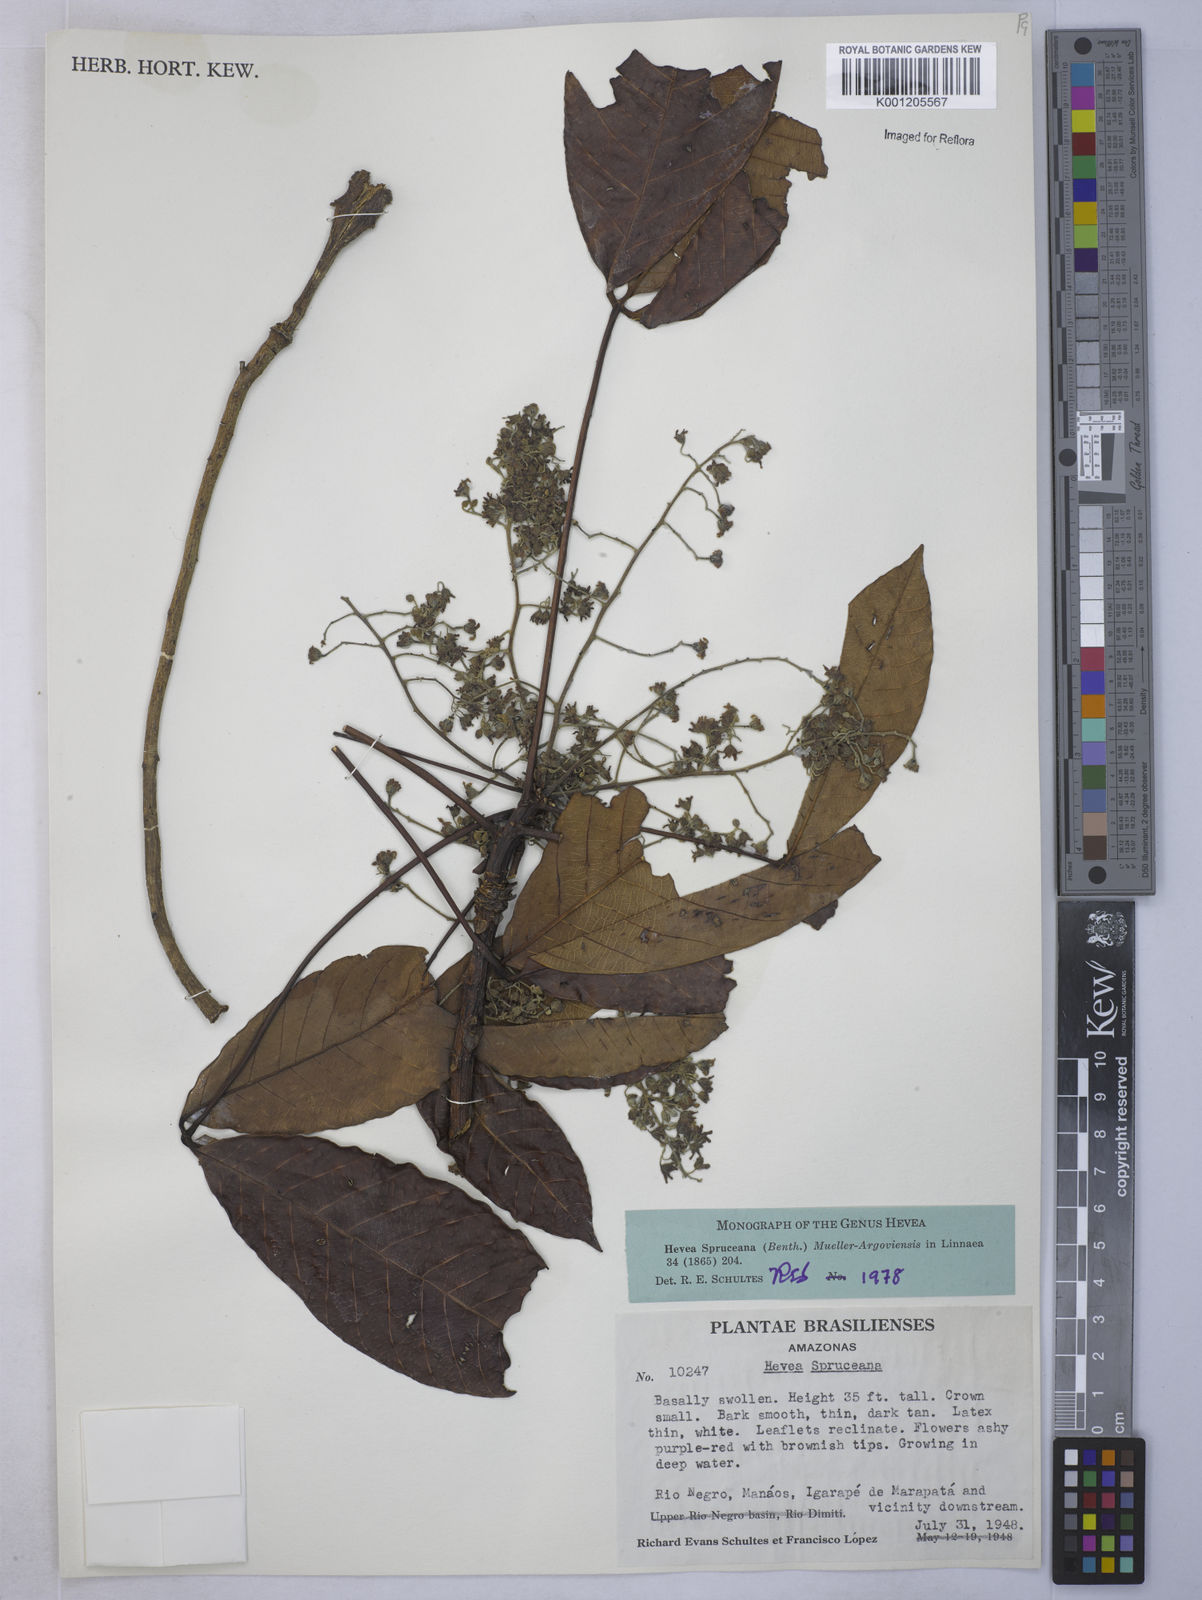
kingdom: Plantae
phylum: Tracheophyta
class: Magnoliopsida
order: Malpighiales
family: Euphorbiaceae
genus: Hevea
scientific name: Hevea
